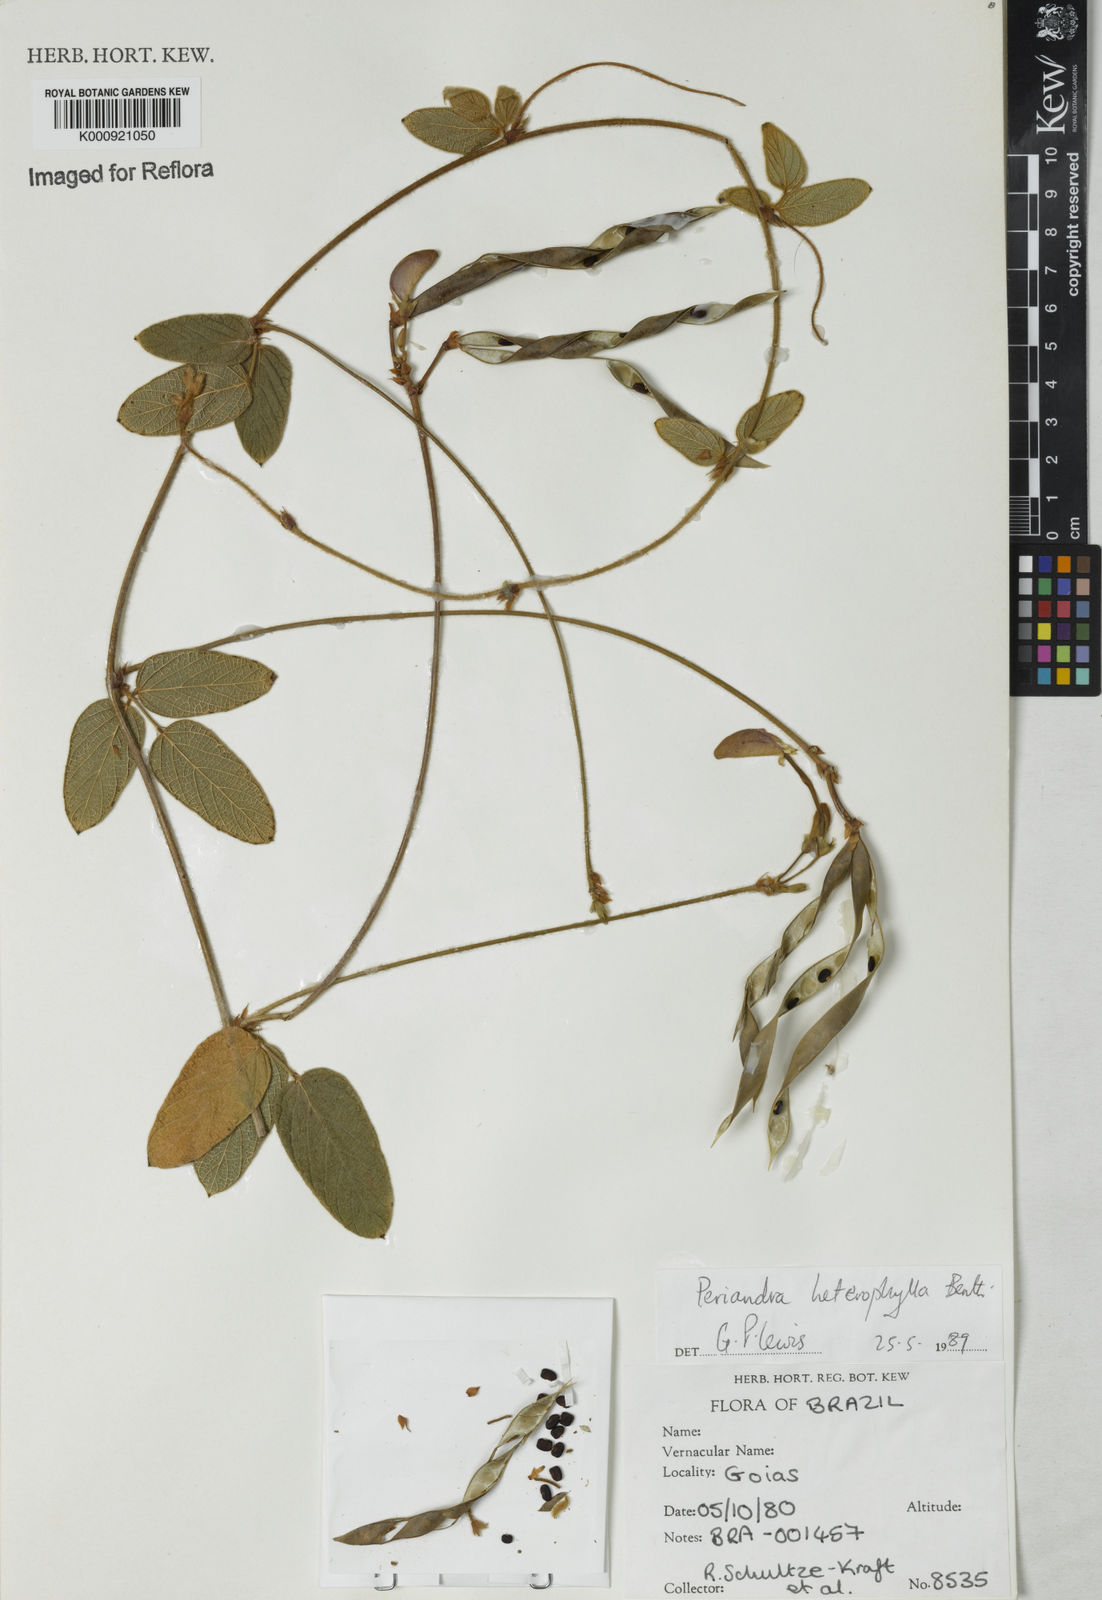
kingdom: Plantae
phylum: Tracheophyta
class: Magnoliopsida
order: Fabales
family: Fabaceae
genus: Periandra
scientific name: Periandra heterophylla
